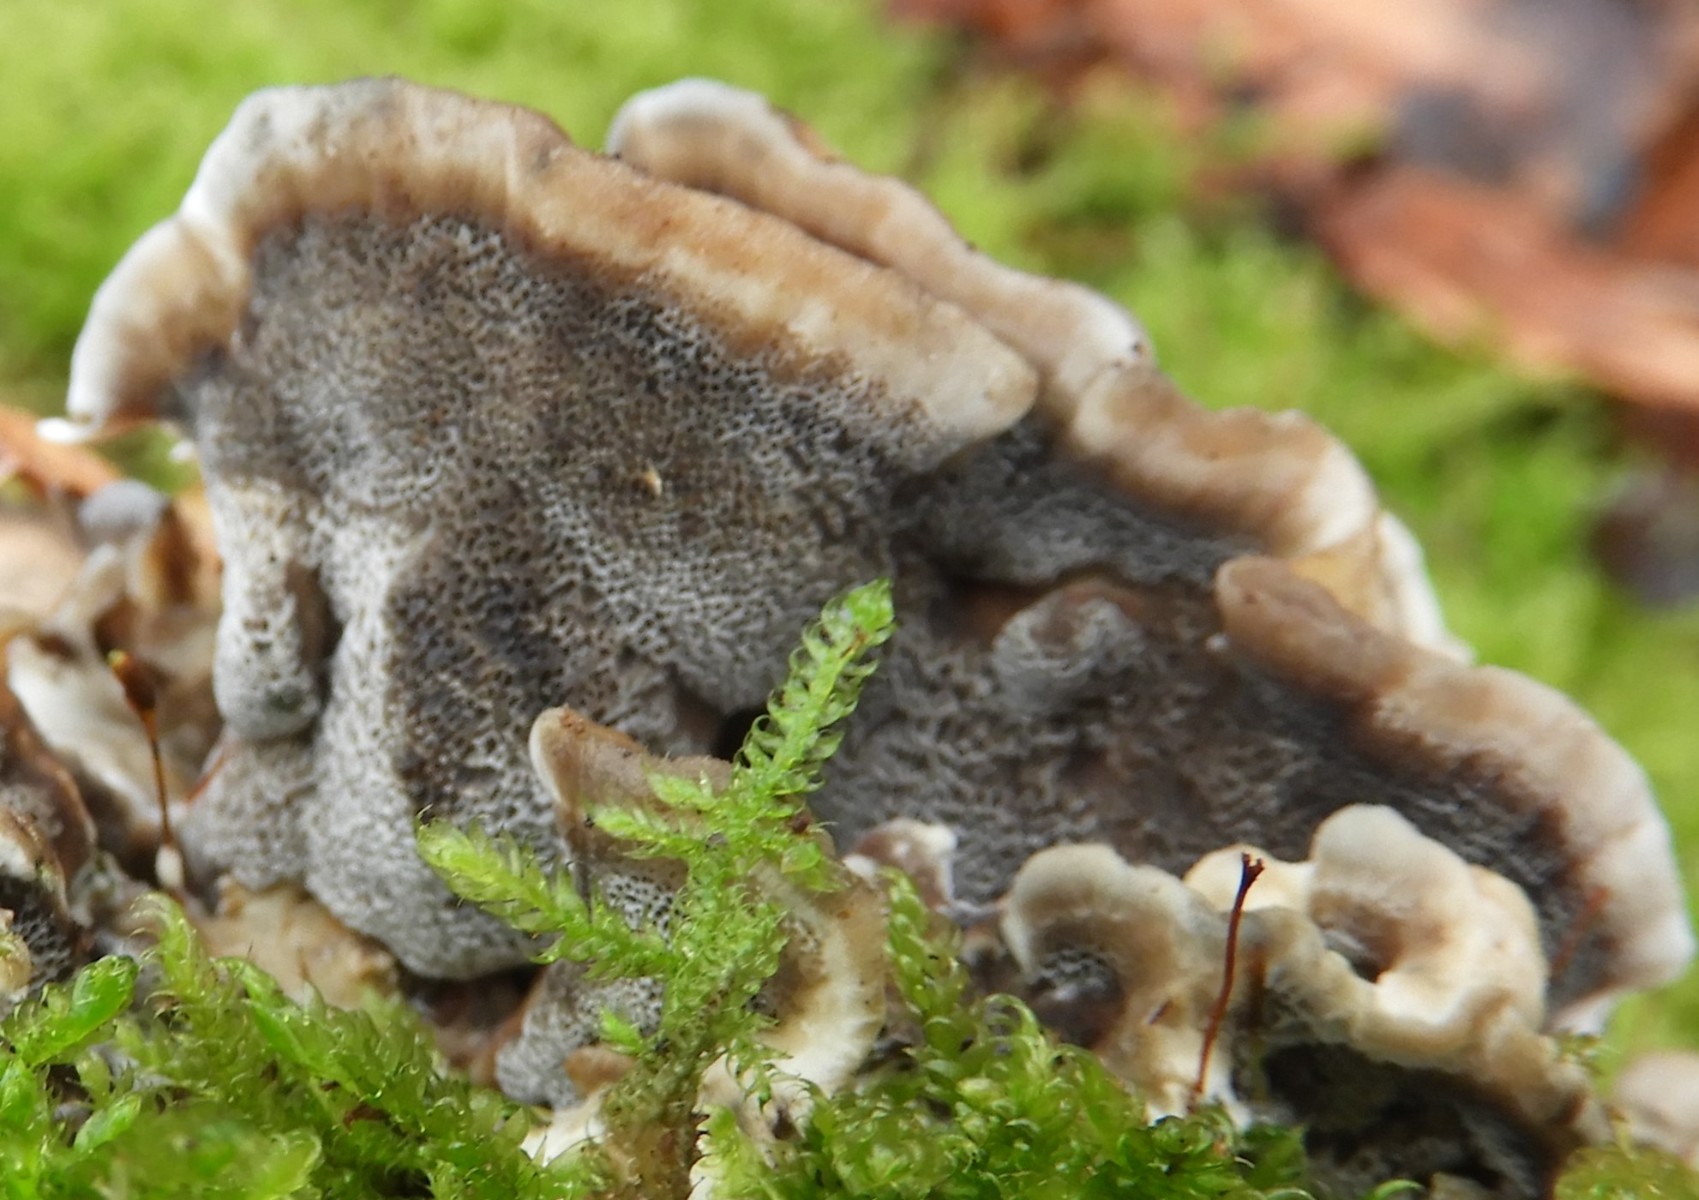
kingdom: Fungi
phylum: Basidiomycota
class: Agaricomycetes
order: Polyporales
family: Phanerochaetaceae
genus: Bjerkandera
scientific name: Bjerkandera adusta
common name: sveden sodporesvamp
